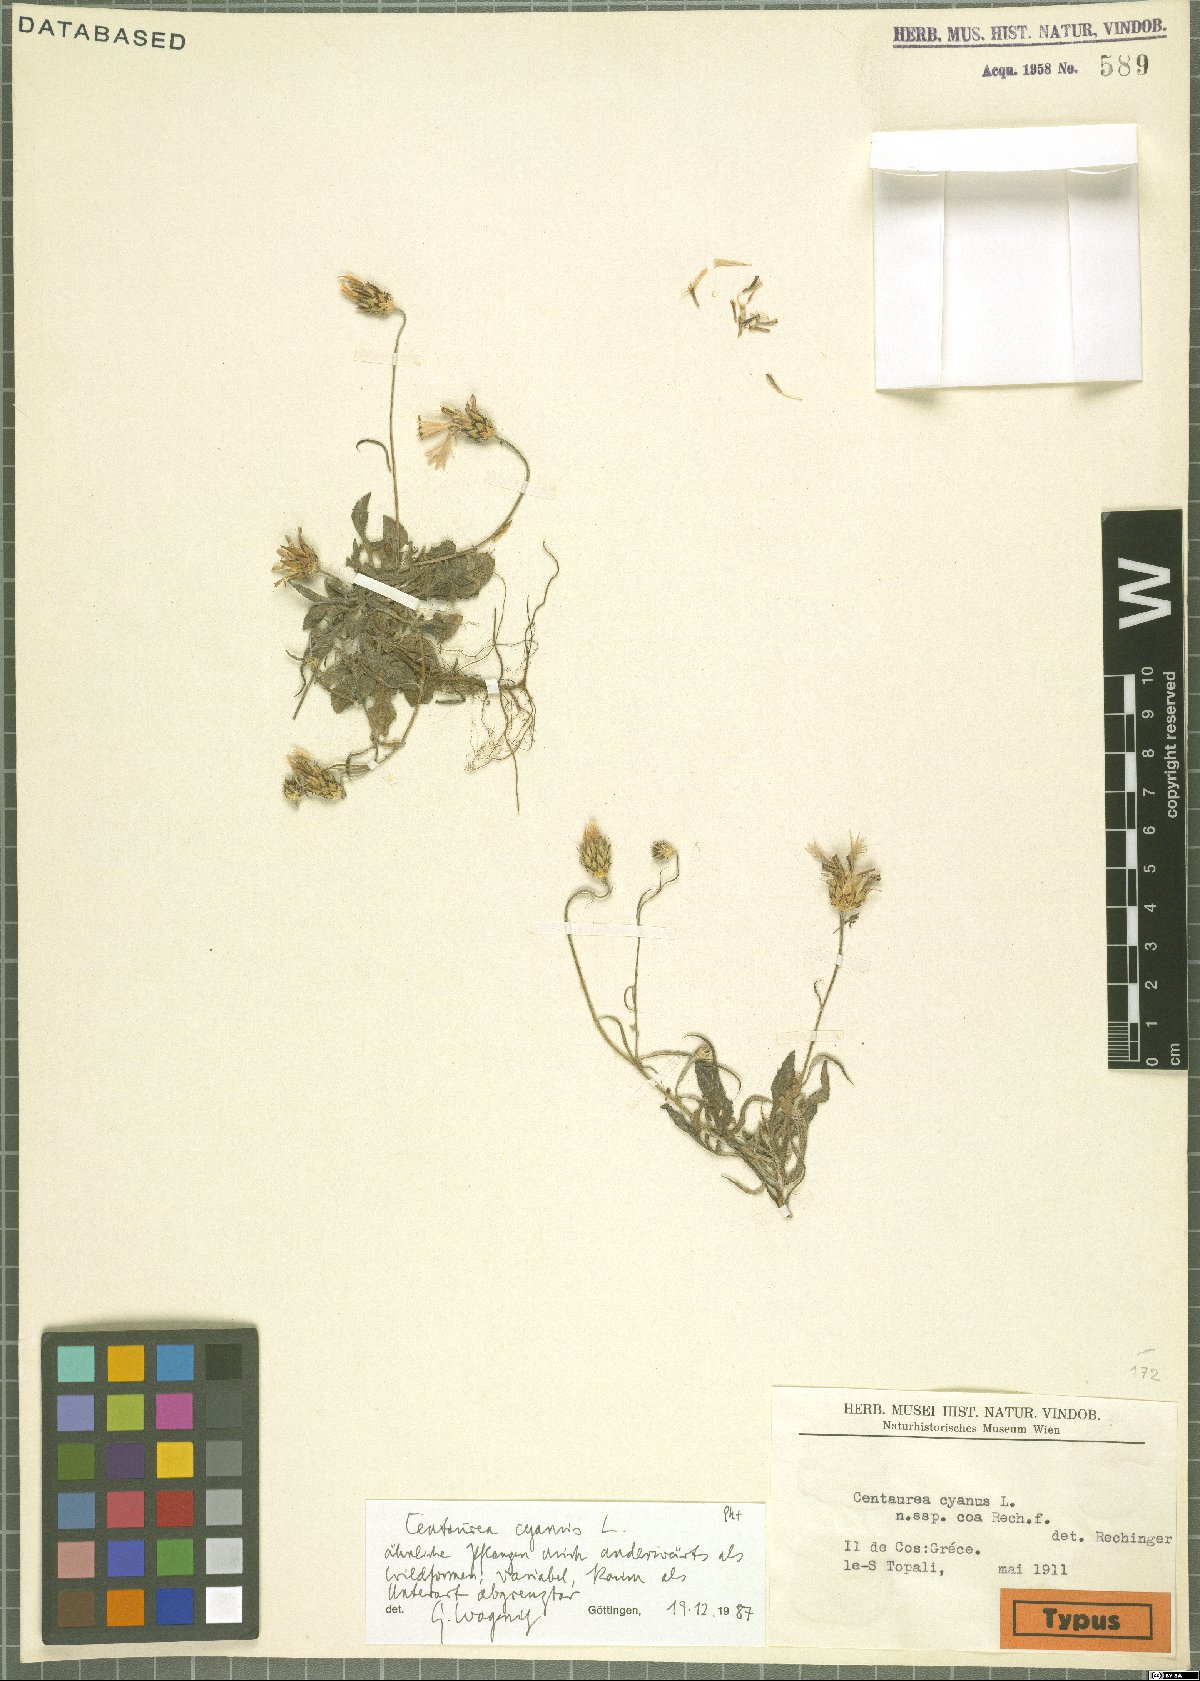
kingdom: Plantae
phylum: Tracheophyta
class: Magnoliopsida
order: Asterales
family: Asteraceae
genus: Centaurea
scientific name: Centaurea cyanus
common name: Cornflower
